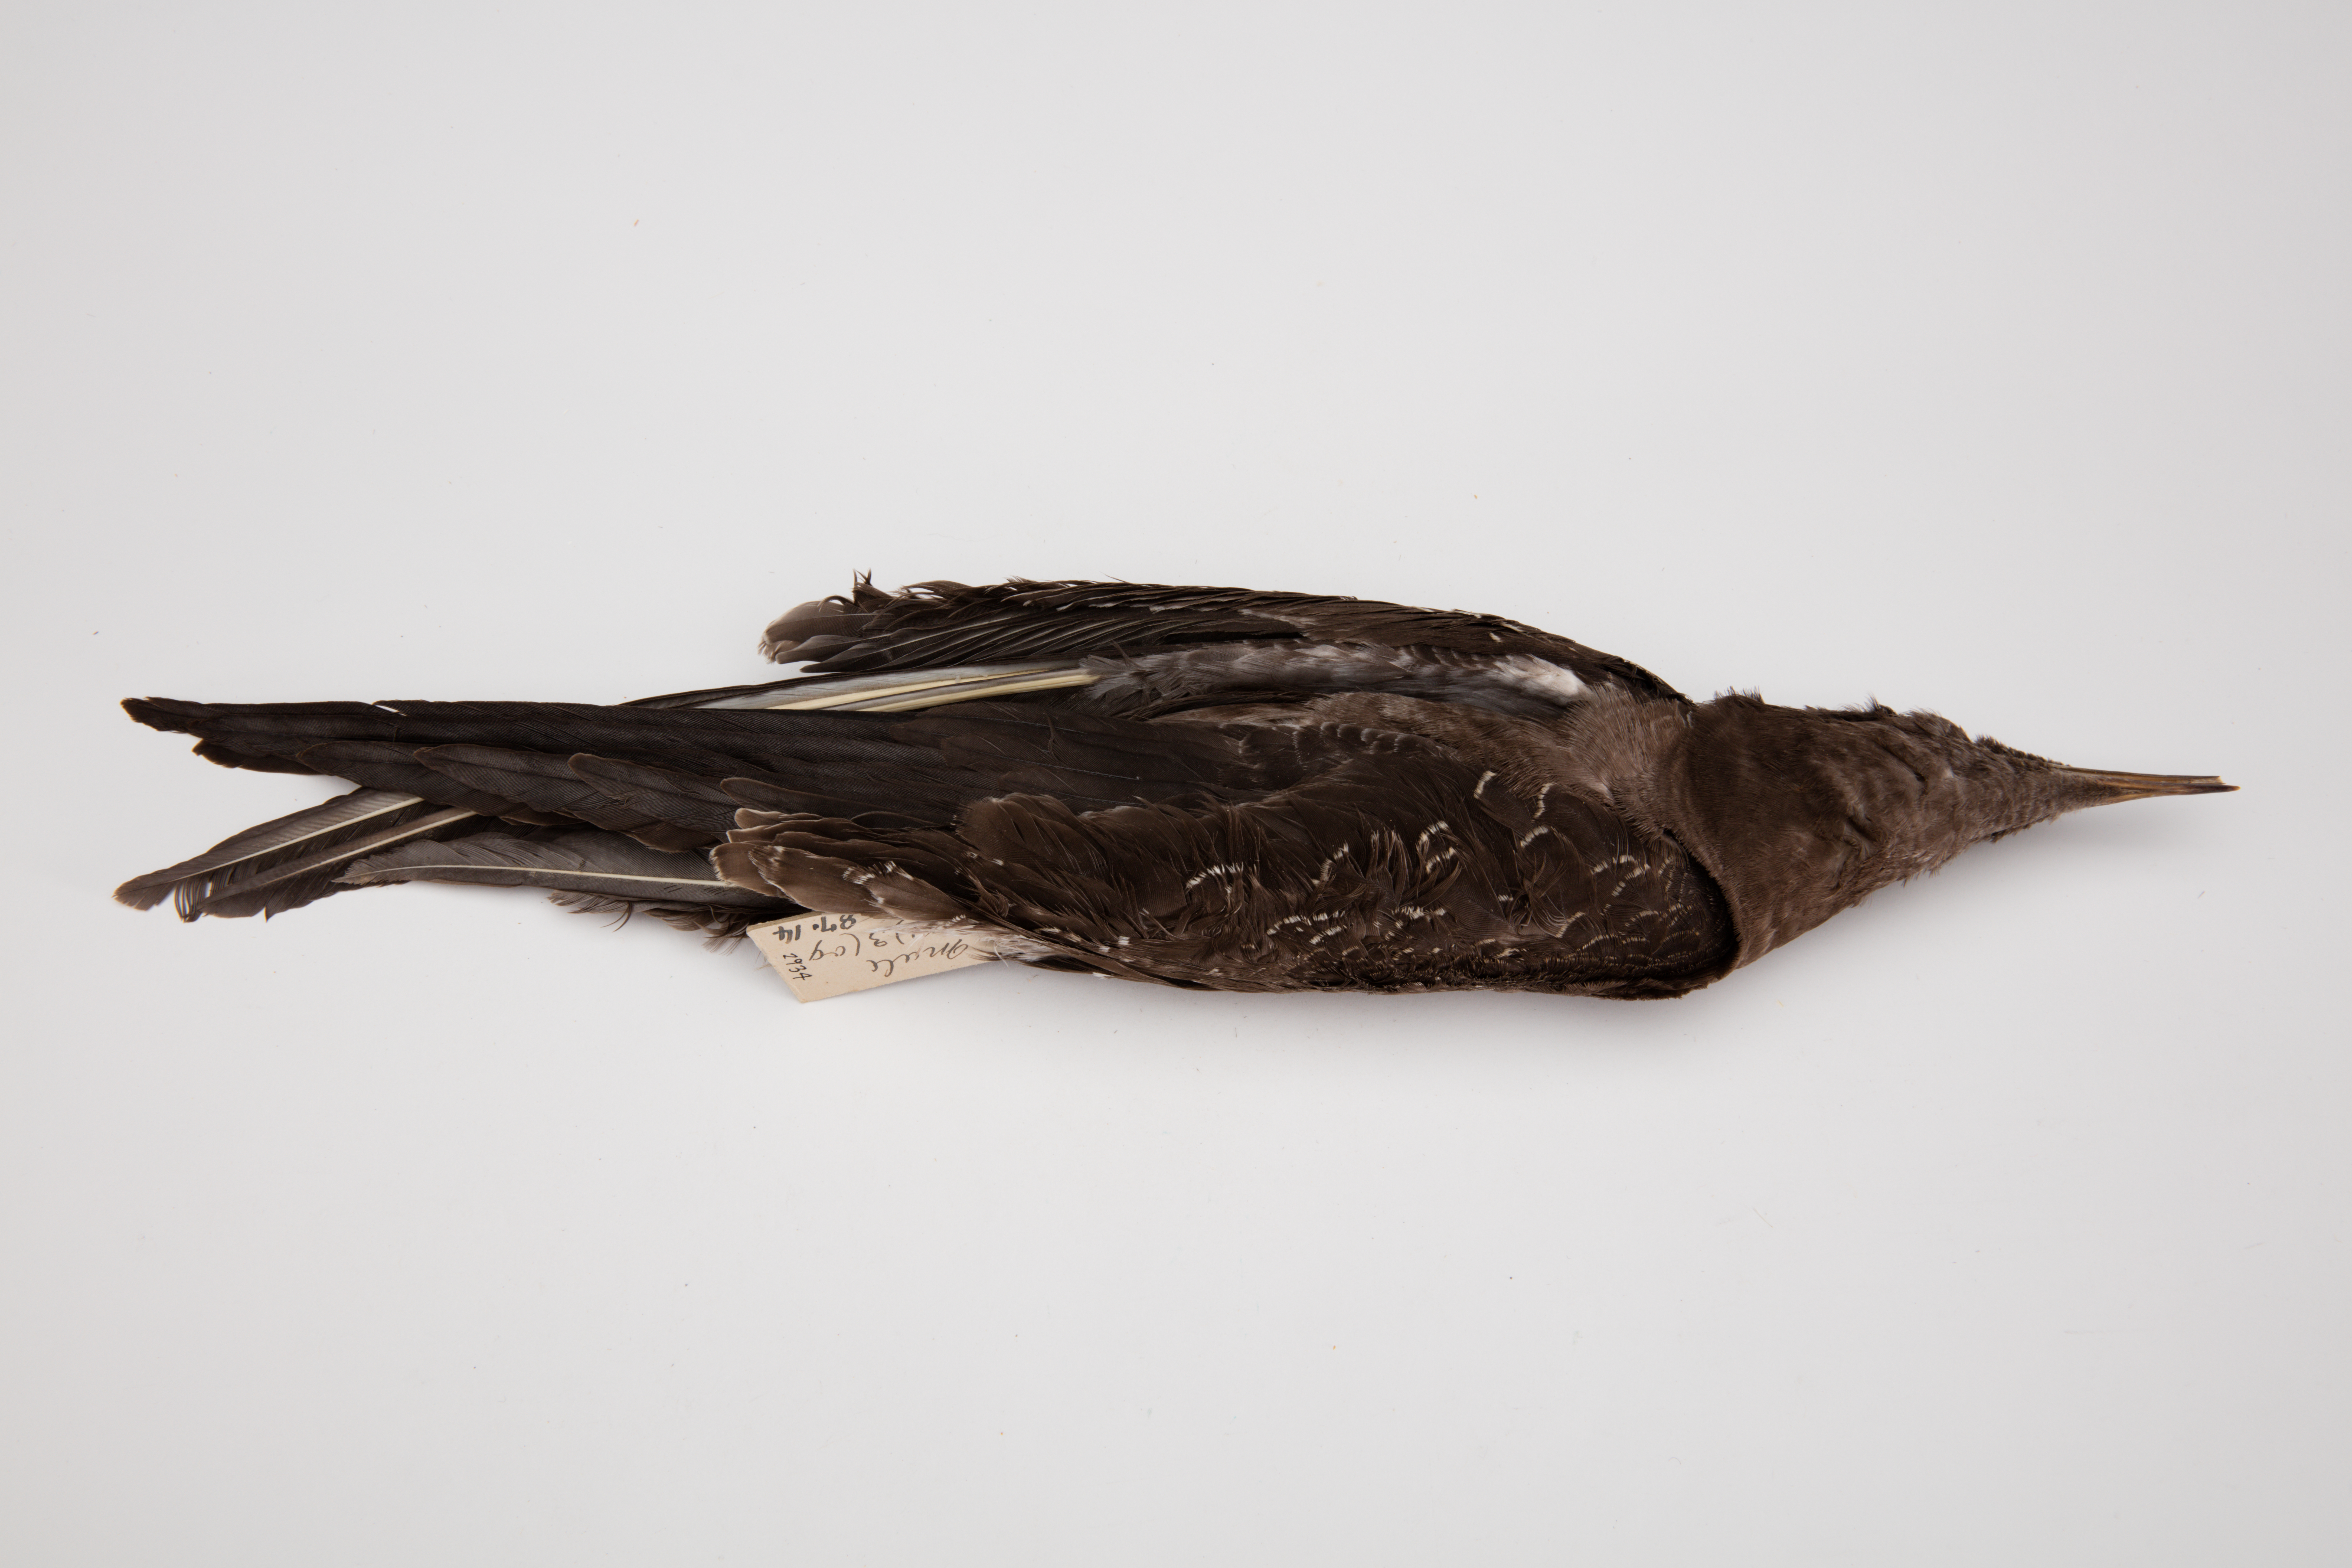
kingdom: Animalia
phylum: Chordata
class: Aves
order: Charadriiformes
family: Laridae
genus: Onychoprion
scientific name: Onychoprion fuscatus
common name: Sooty tern
